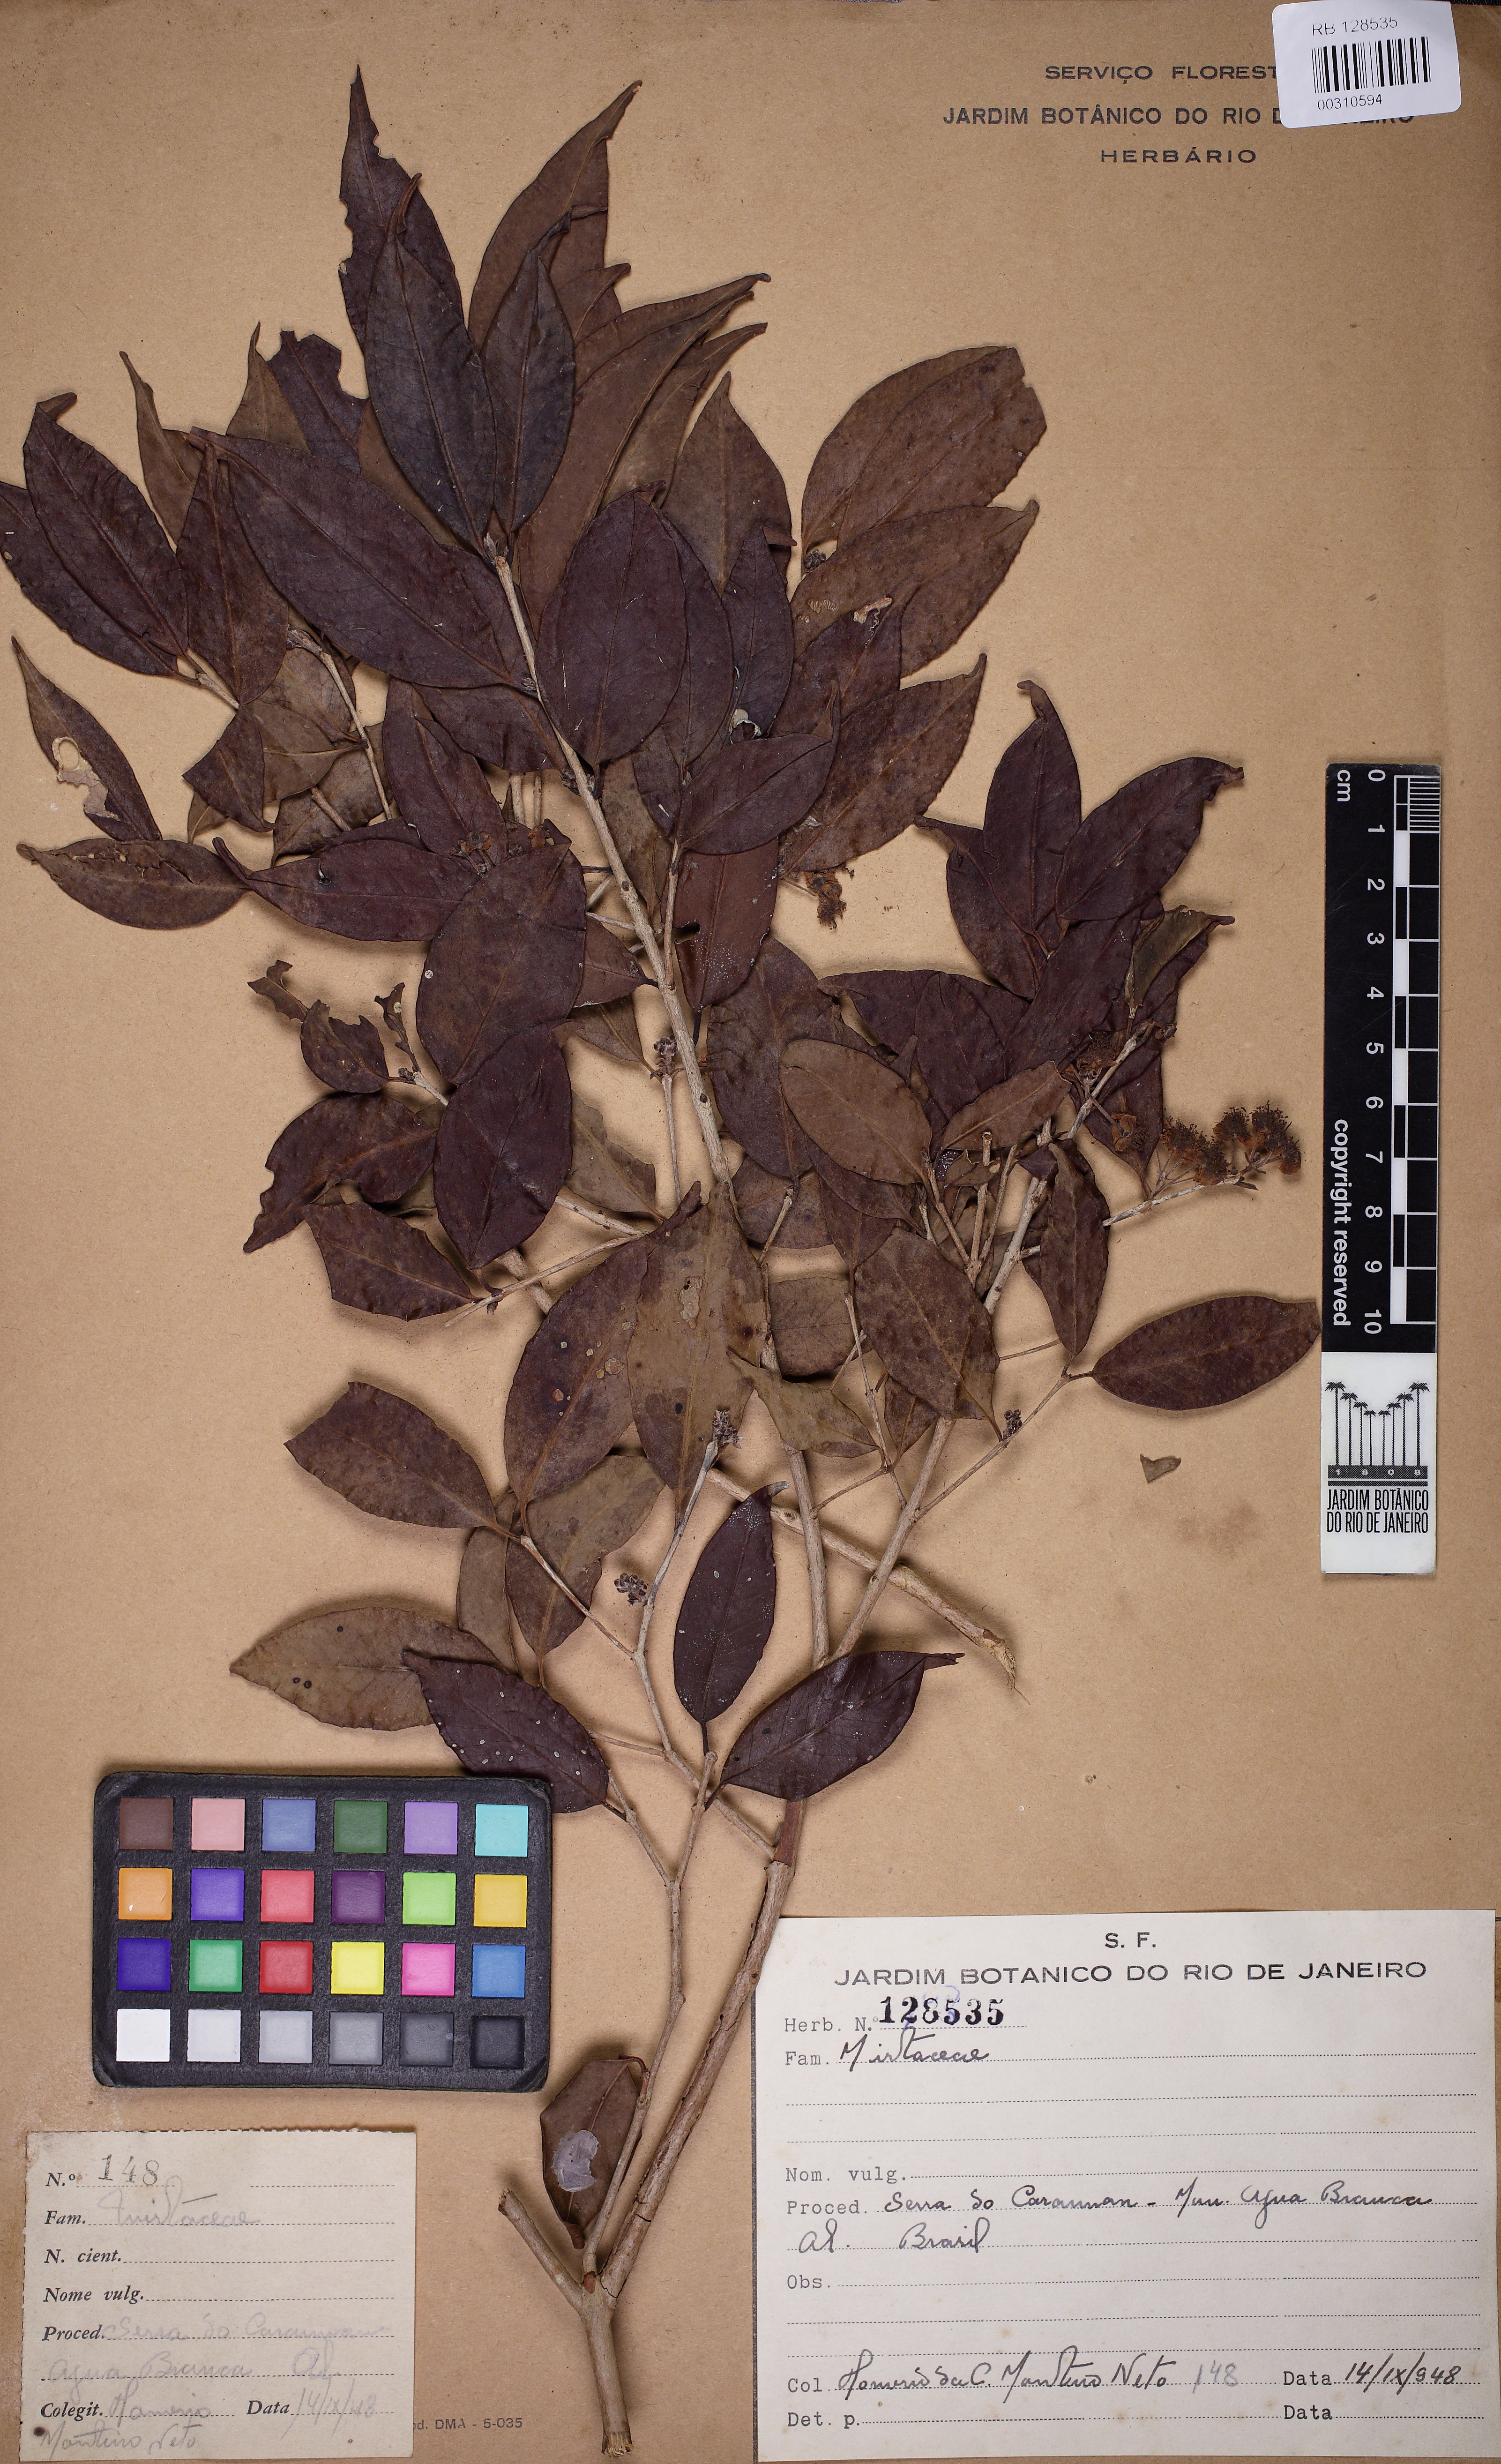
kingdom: Plantae
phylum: Tracheophyta
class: Magnoliopsida
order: Myrtales
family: Myrtaceae
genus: Eugenia
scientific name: Eugenia candolleana
